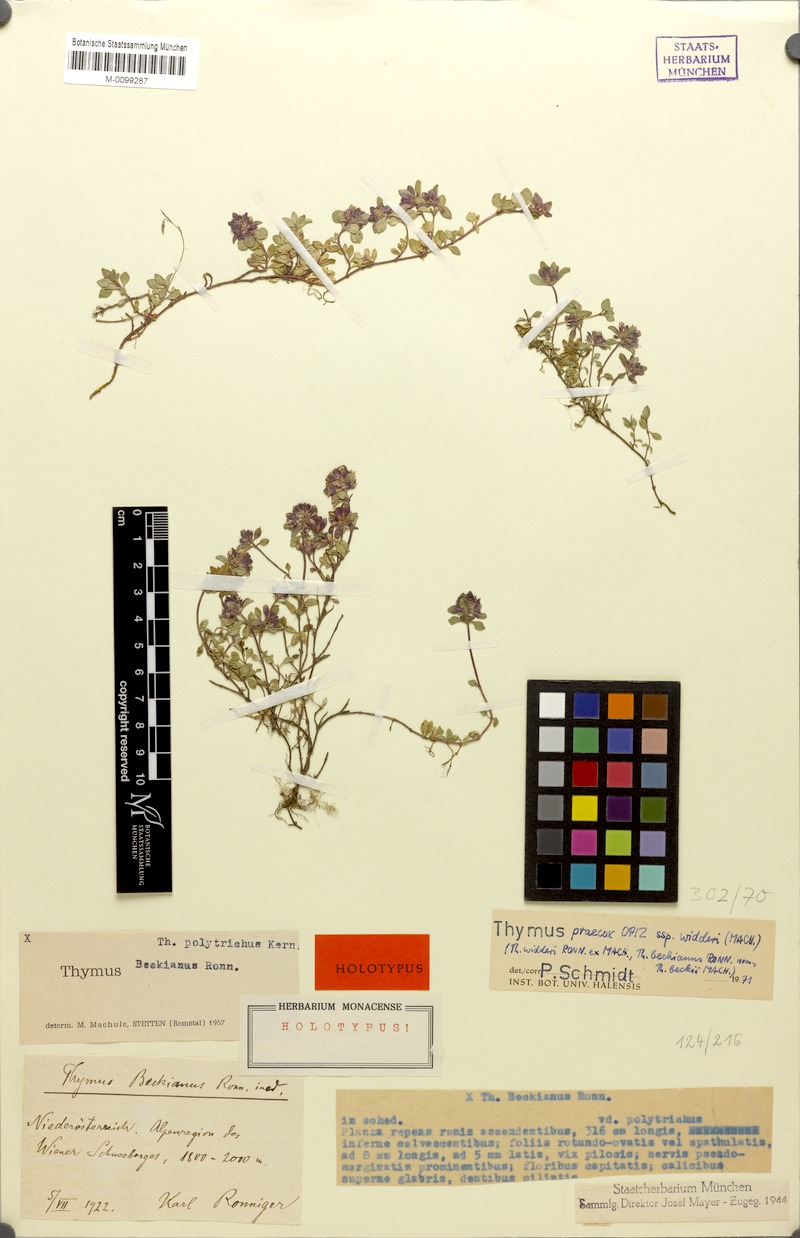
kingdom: Plantae
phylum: Tracheophyta
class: Magnoliopsida
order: Lamiales
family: Lamiaceae
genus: Thymus
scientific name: Thymus praecox
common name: Wild thyme
